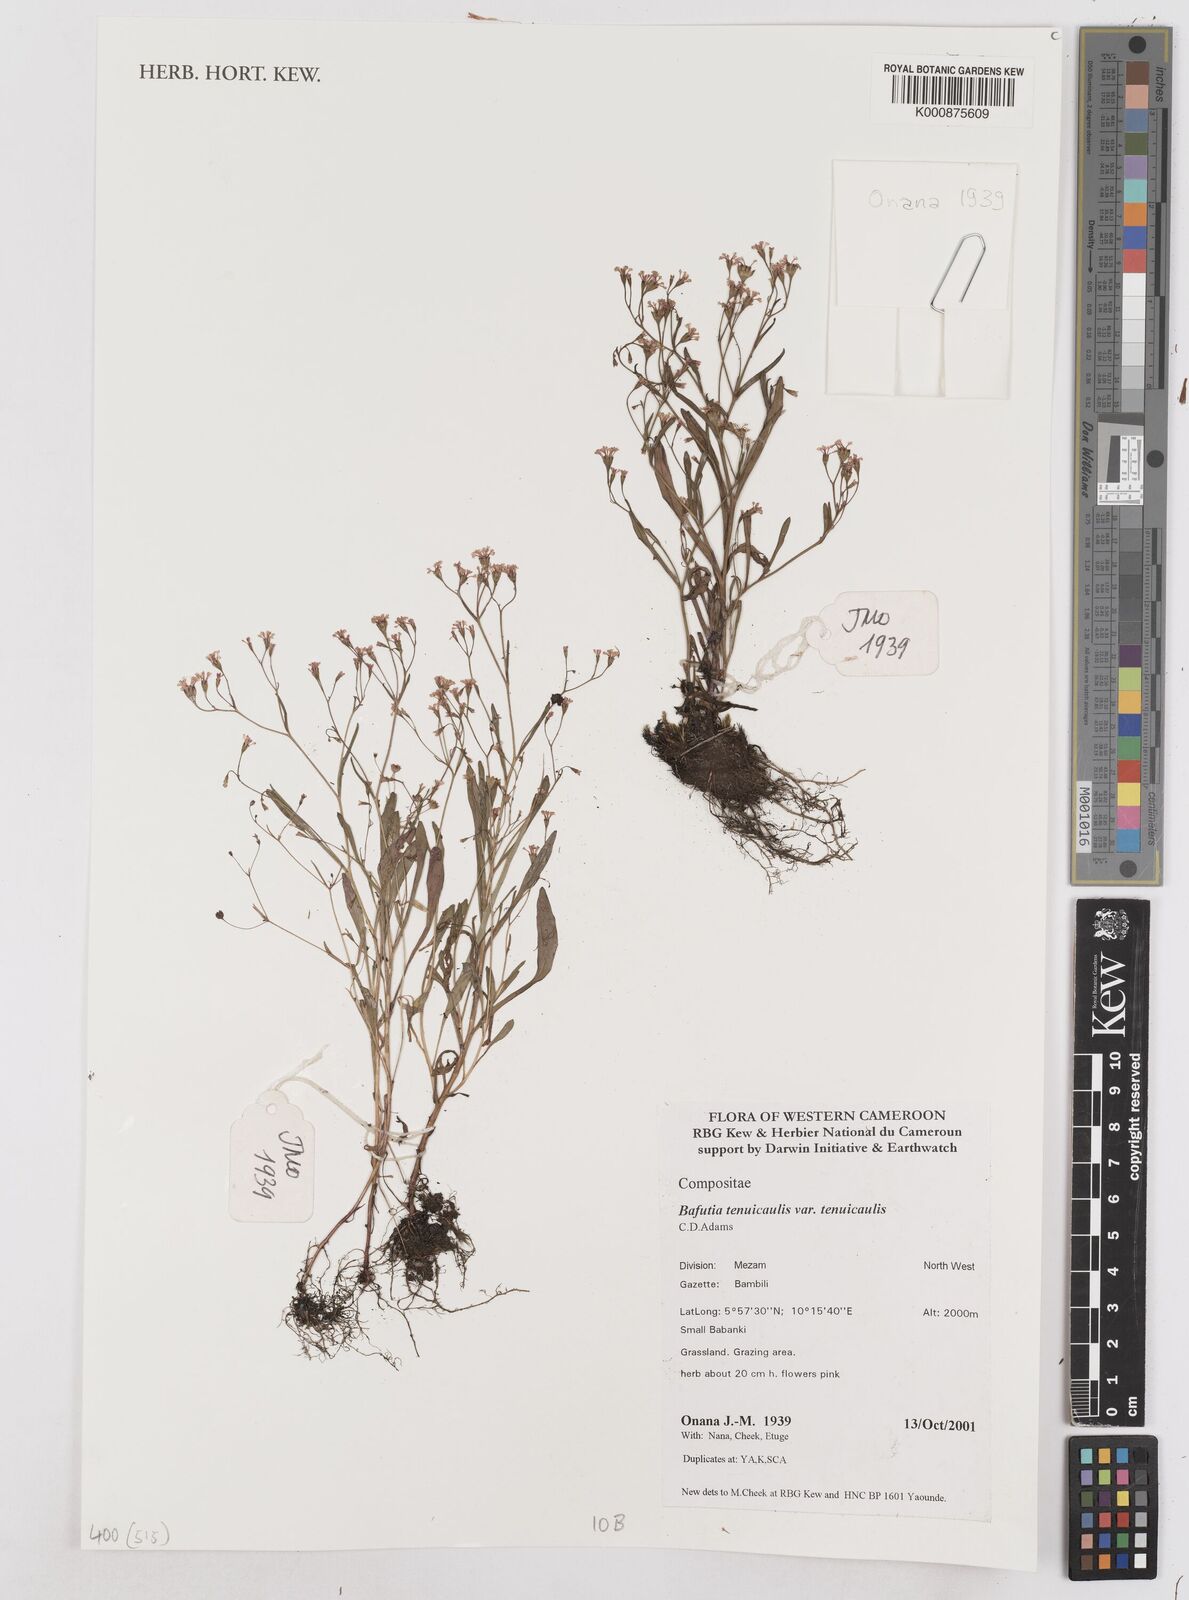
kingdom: Plantae
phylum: Tracheophyta
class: Magnoliopsida
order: Asterales
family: Asteraceae
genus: Emilia
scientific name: Emilia tenuicaulis
